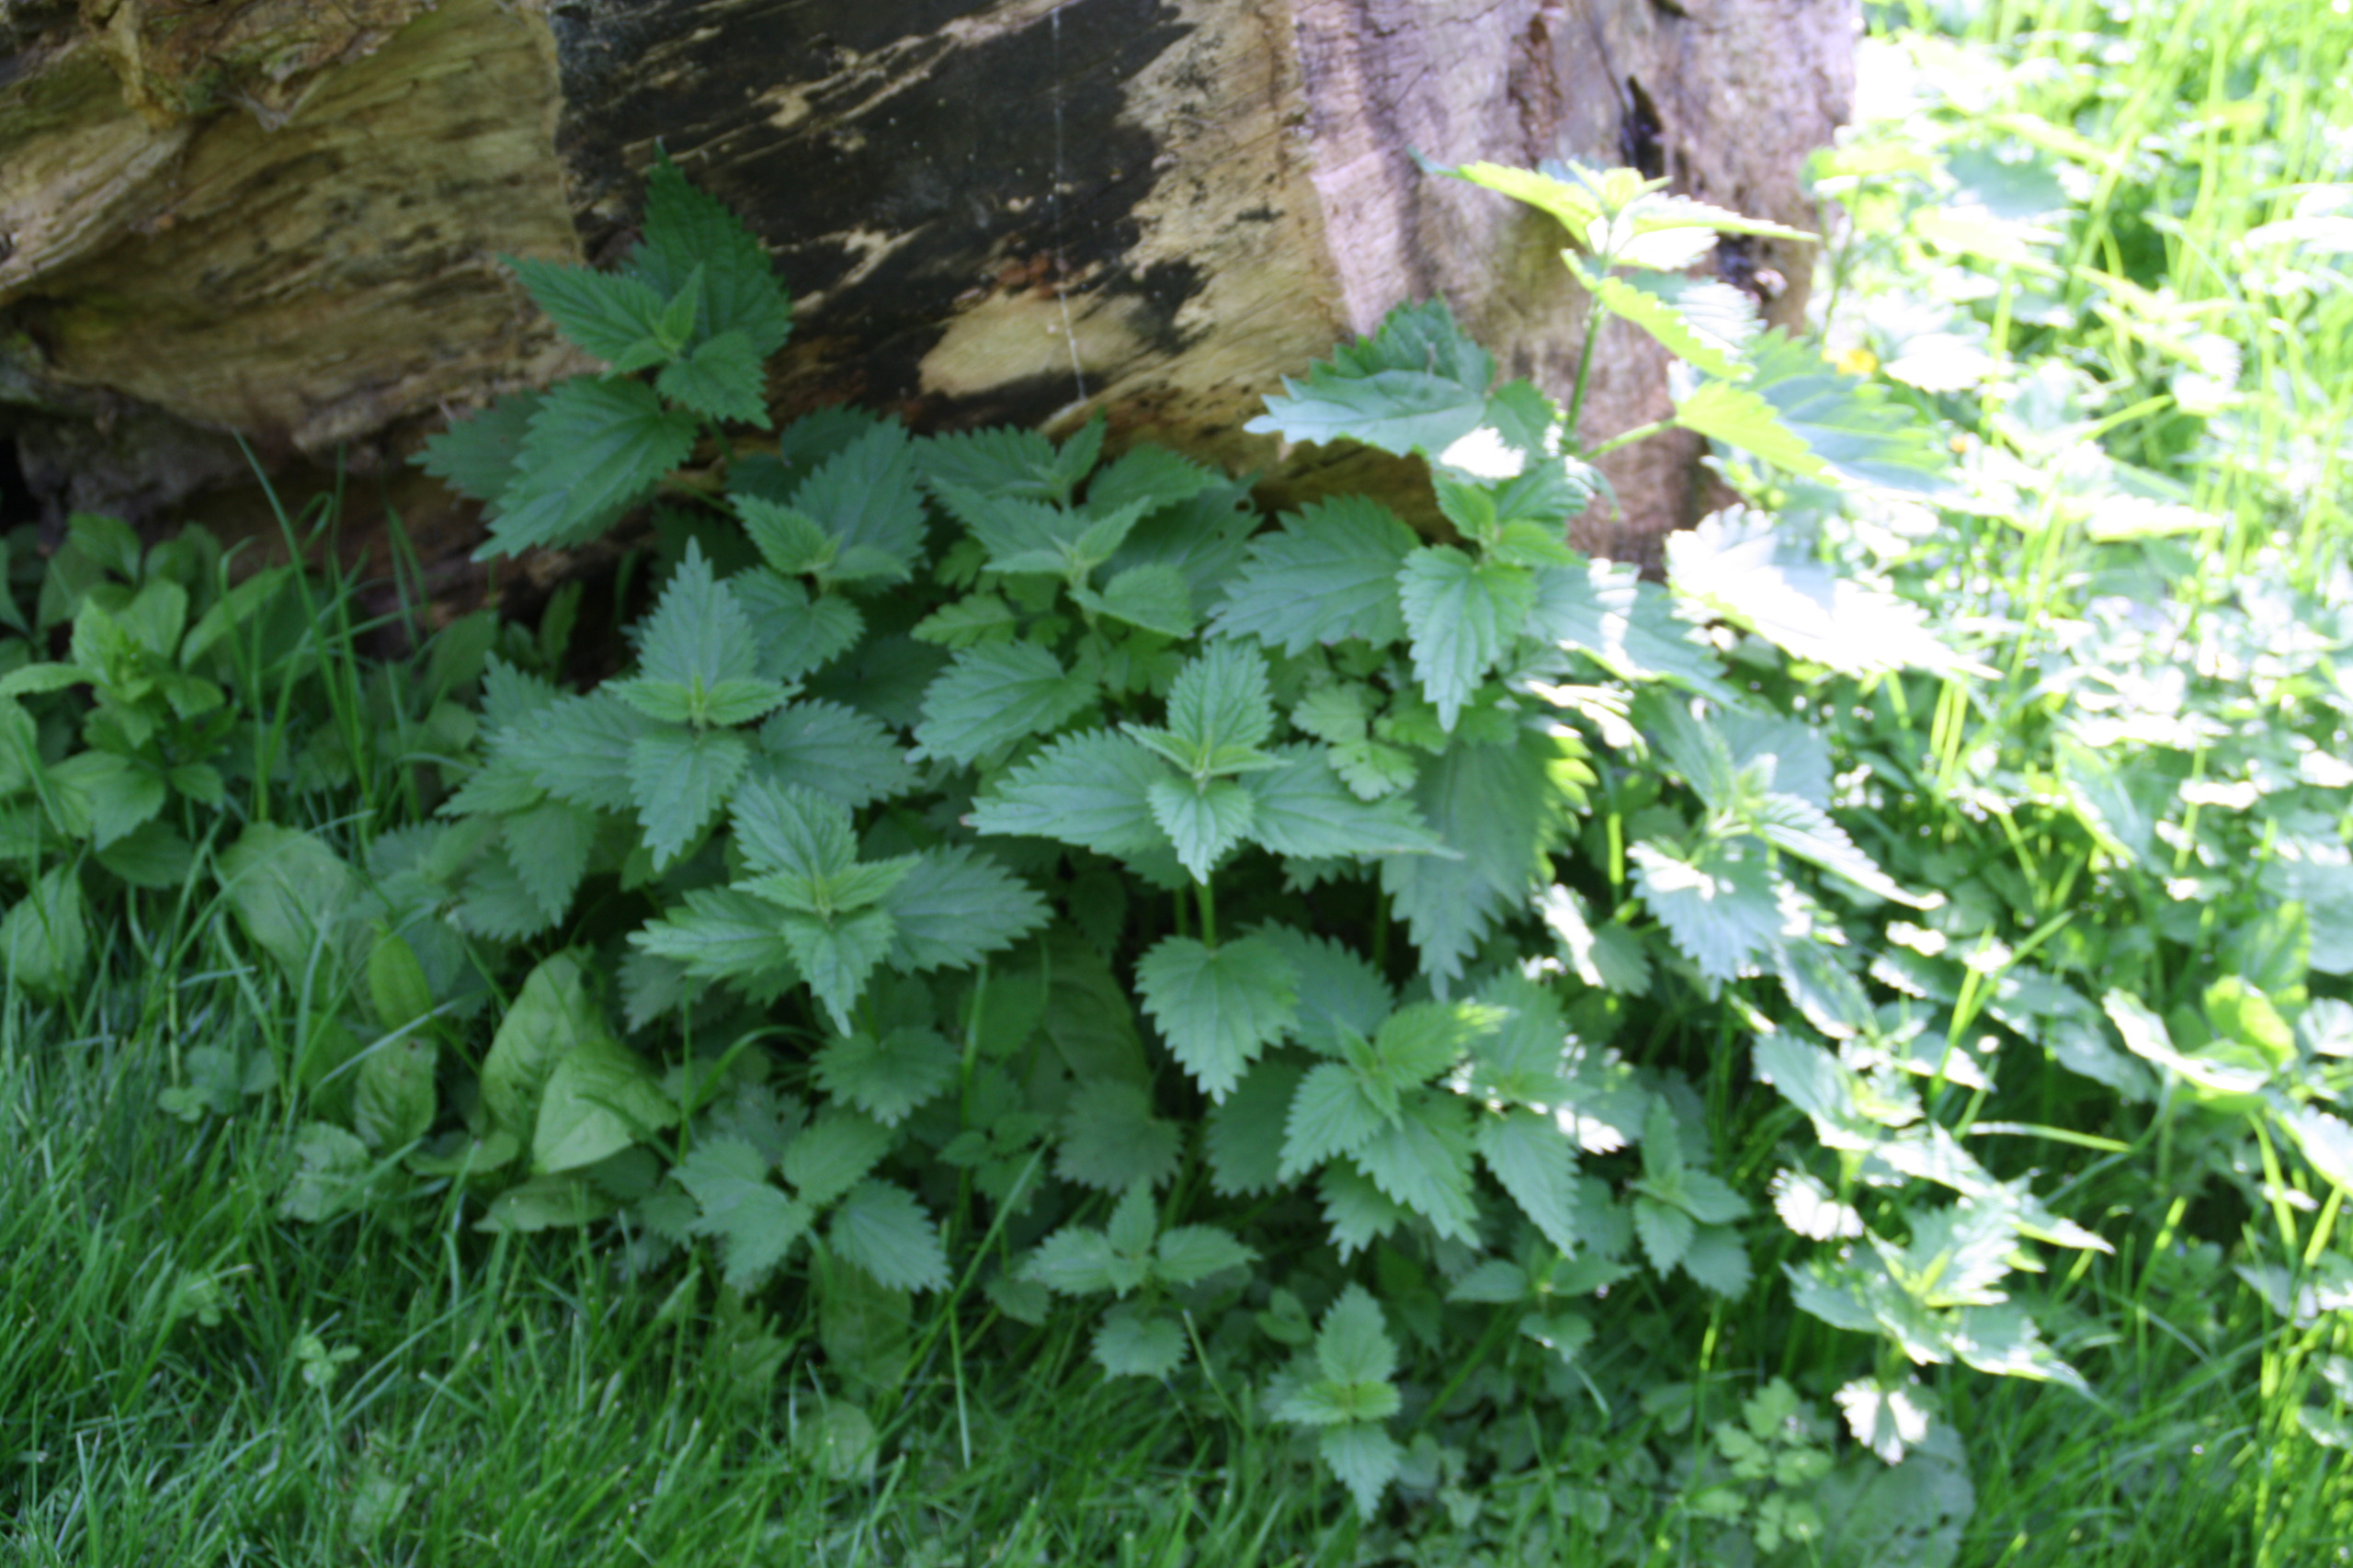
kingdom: Plantae
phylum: Tracheophyta
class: Magnoliopsida
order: Rosales
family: Urticaceae
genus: Urtica
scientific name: Urtica dioica
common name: Stor nælde
